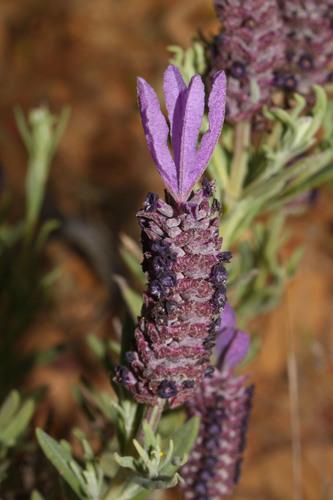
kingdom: Plantae
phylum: Tracheophyta
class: Magnoliopsida
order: Lamiales
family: Lamiaceae
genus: Lavandula
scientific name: Lavandula stoechas
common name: French lavender
